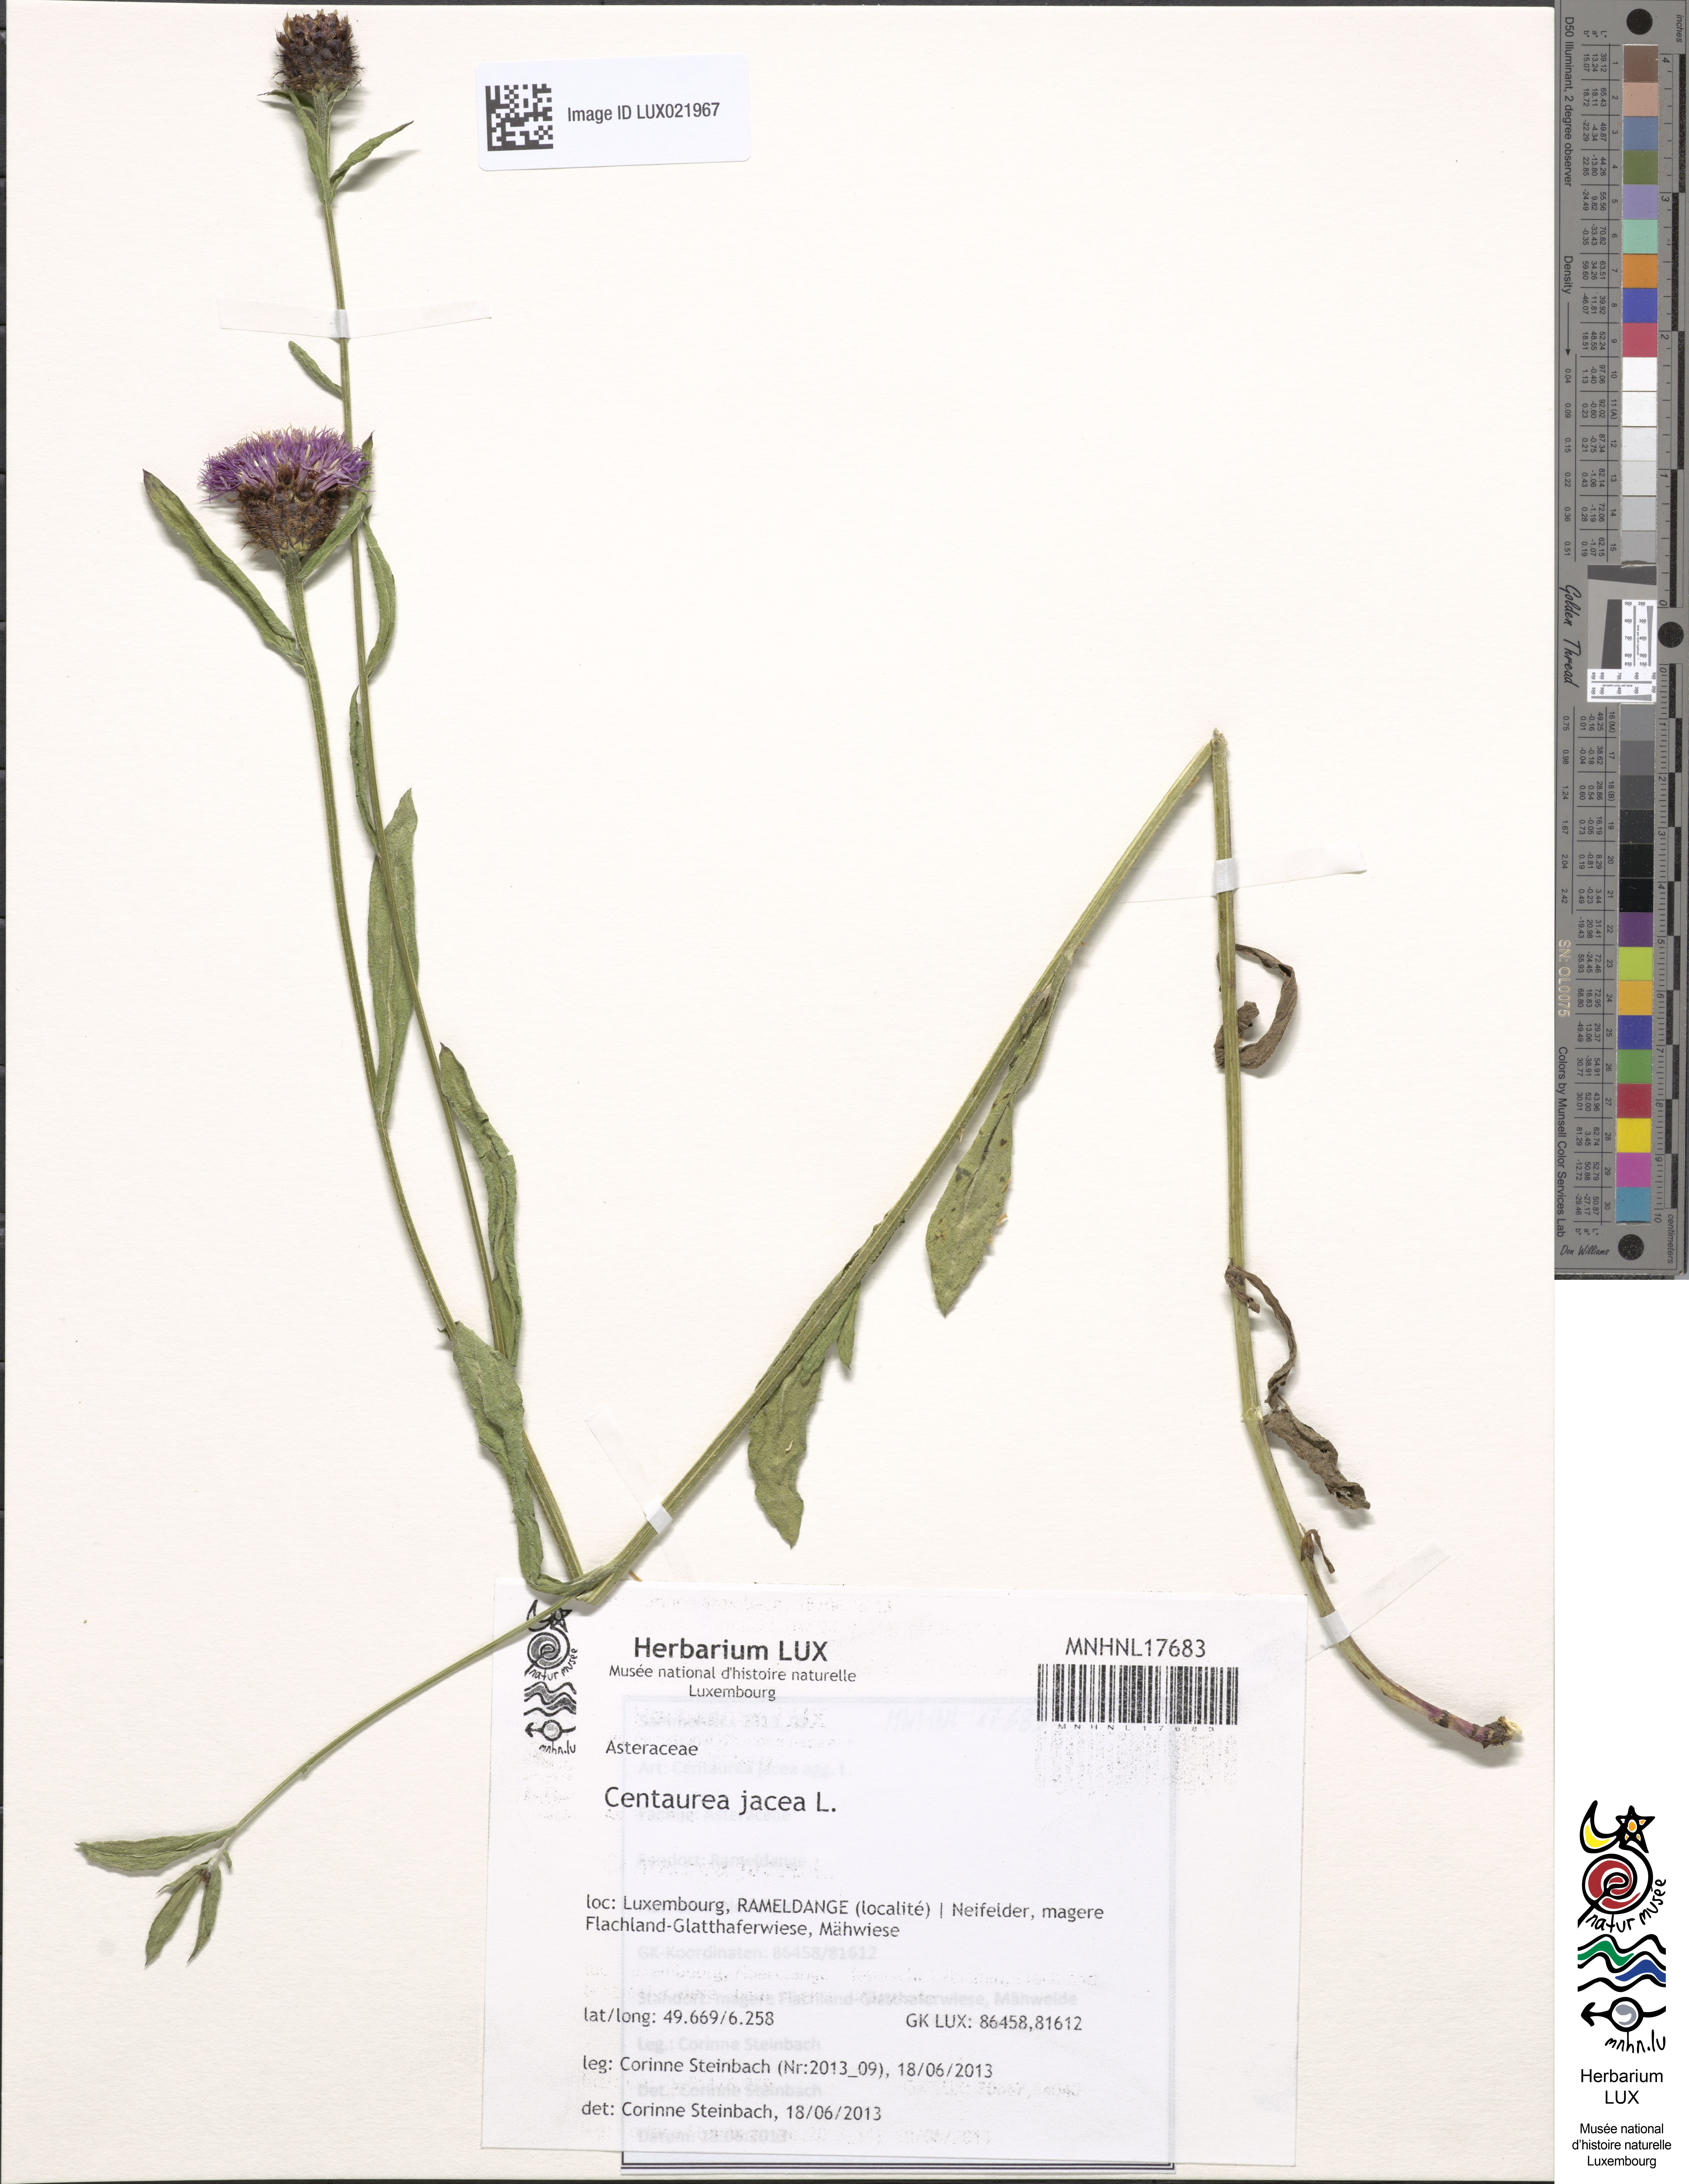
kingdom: Plantae
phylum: Tracheophyta
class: Magnoliopsida
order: Asterales
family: Asteraceae
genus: Centaurea
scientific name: Centaurea jacea
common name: Brown knapweed
